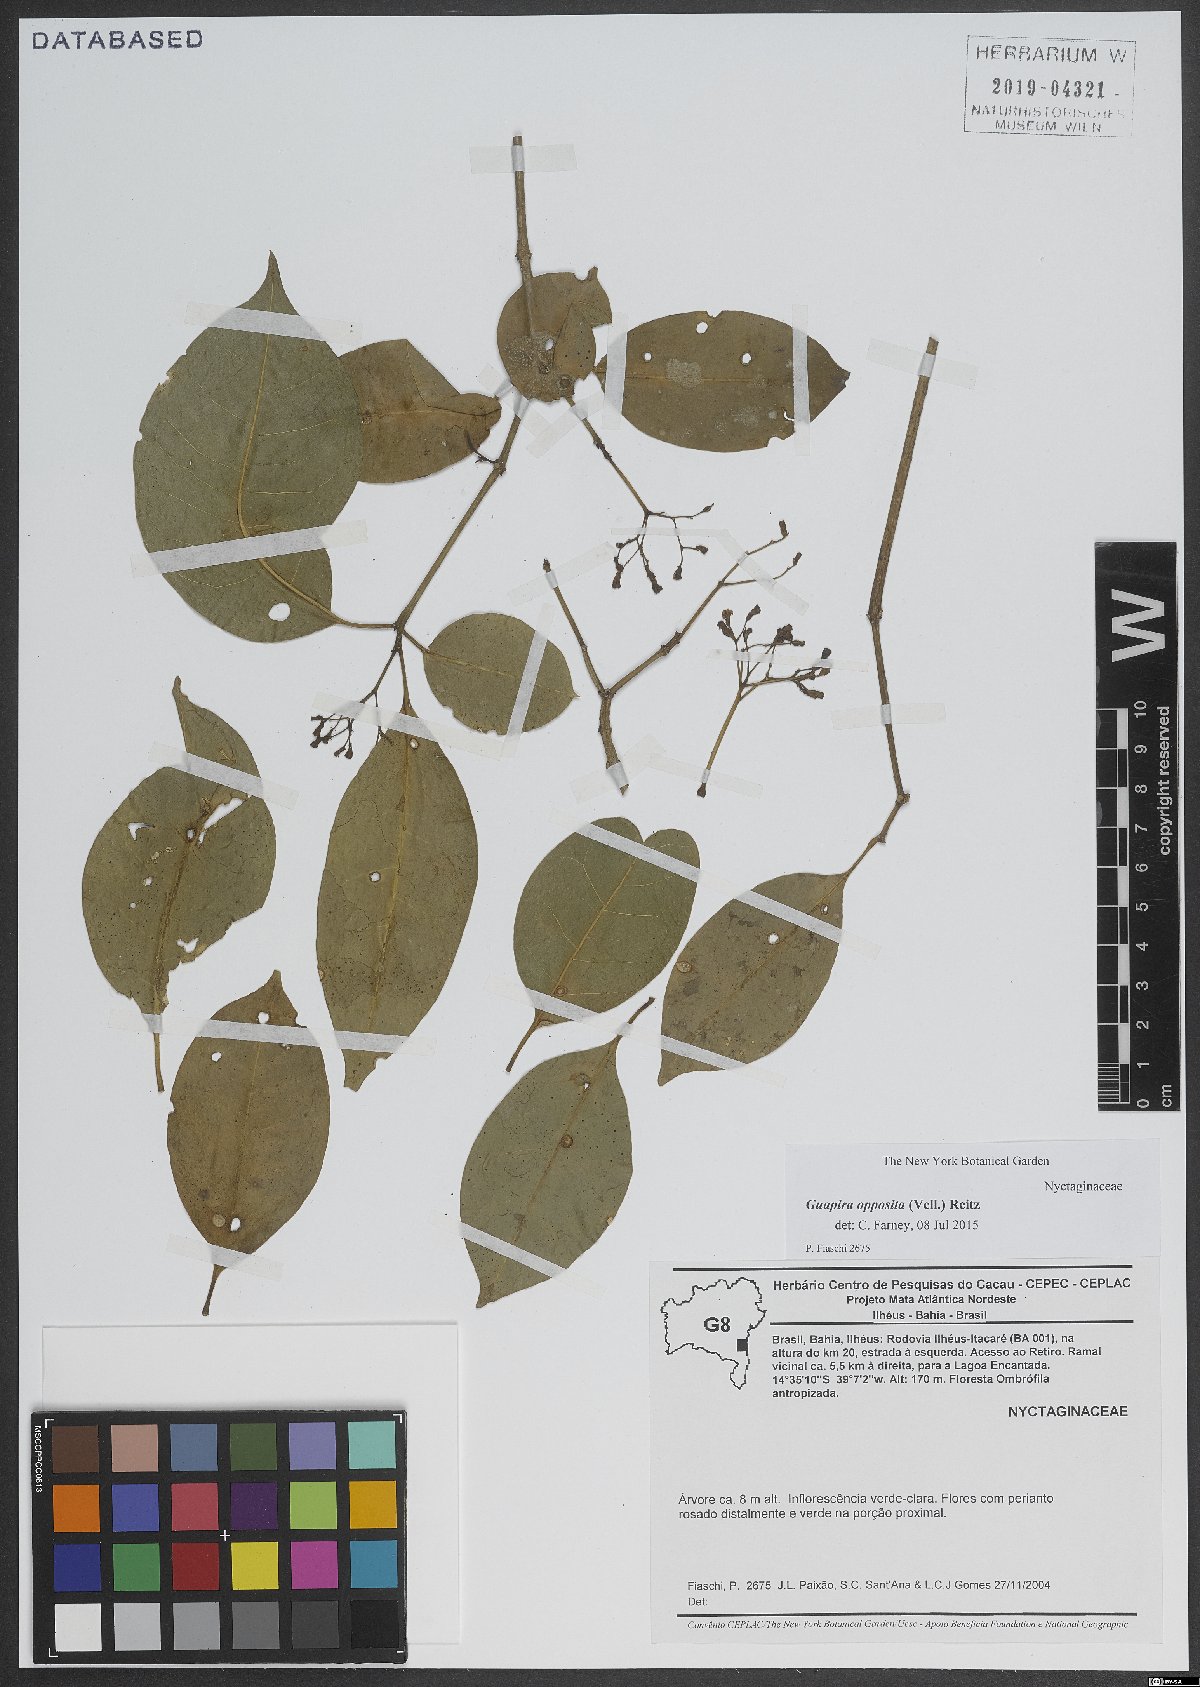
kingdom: Plantae
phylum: Tracheophyta
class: Magnoliopsida
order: Caryophyllales
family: Nyctaginaceae
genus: Guapira
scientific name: Guapira opposita
